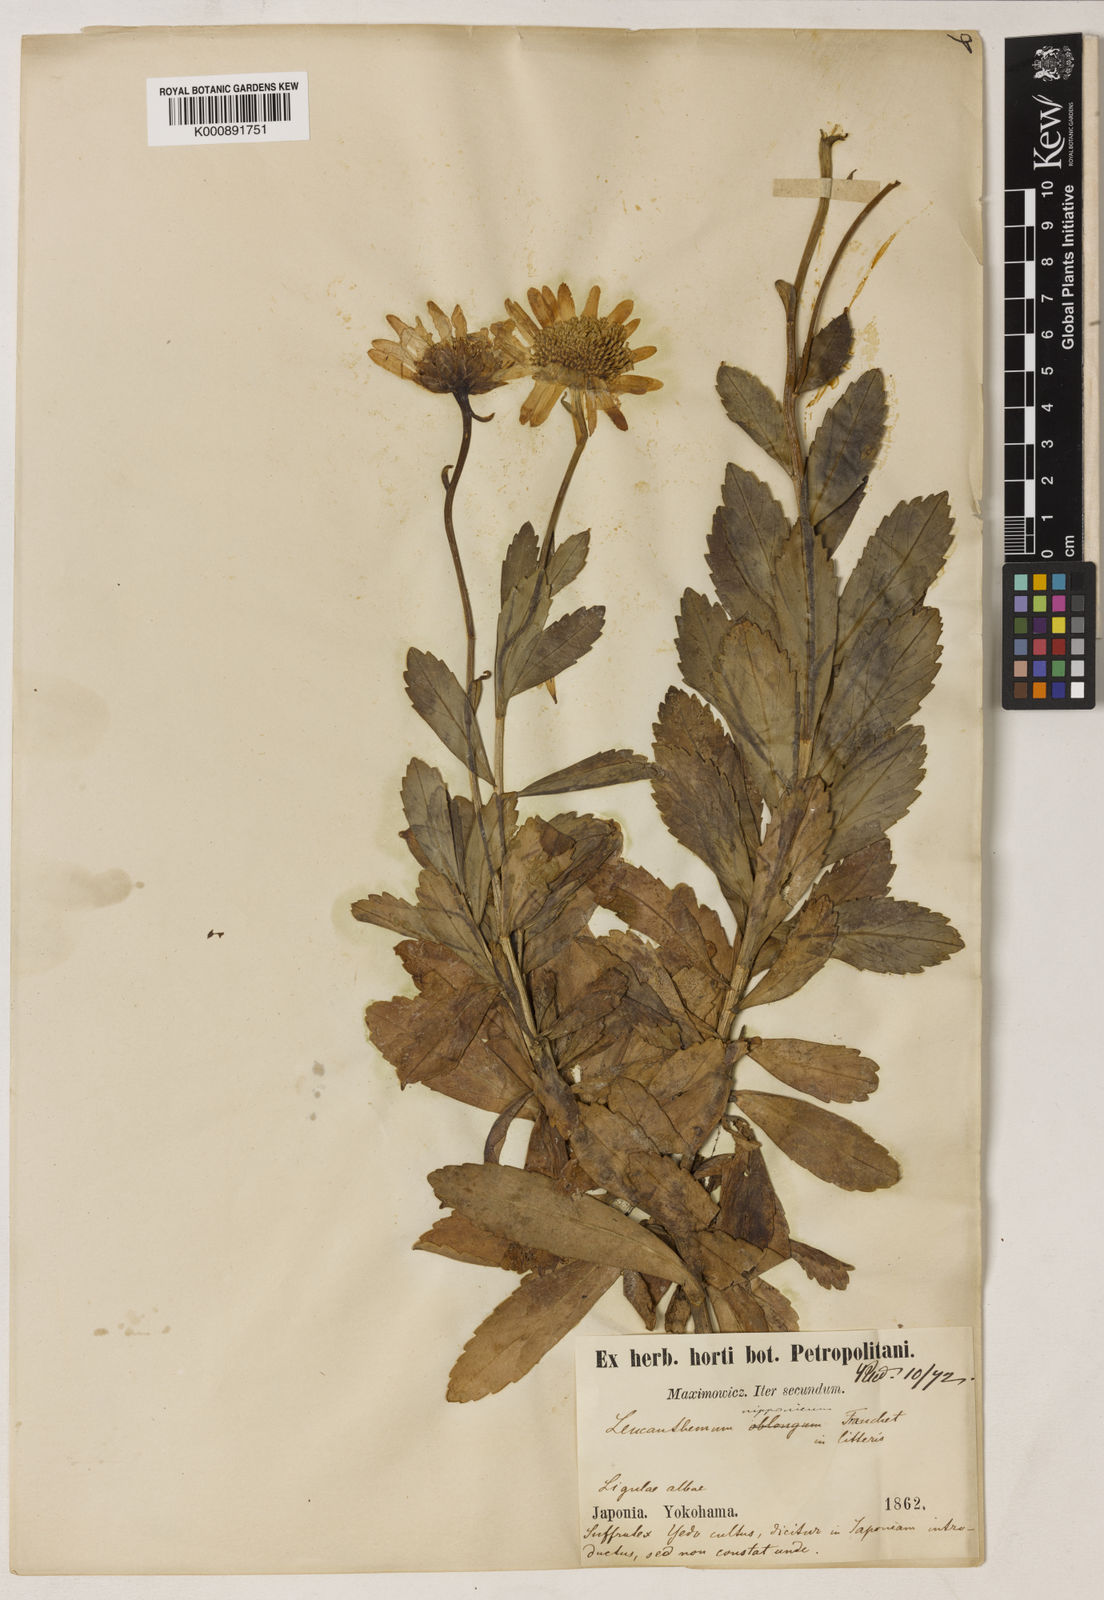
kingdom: Plantae
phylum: Tracheophyta
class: Magnoliopsida
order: Asterales
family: Asteraceae
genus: Nipponanthemum
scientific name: Nipponanthemum nipponicum
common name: Nippon daisy
